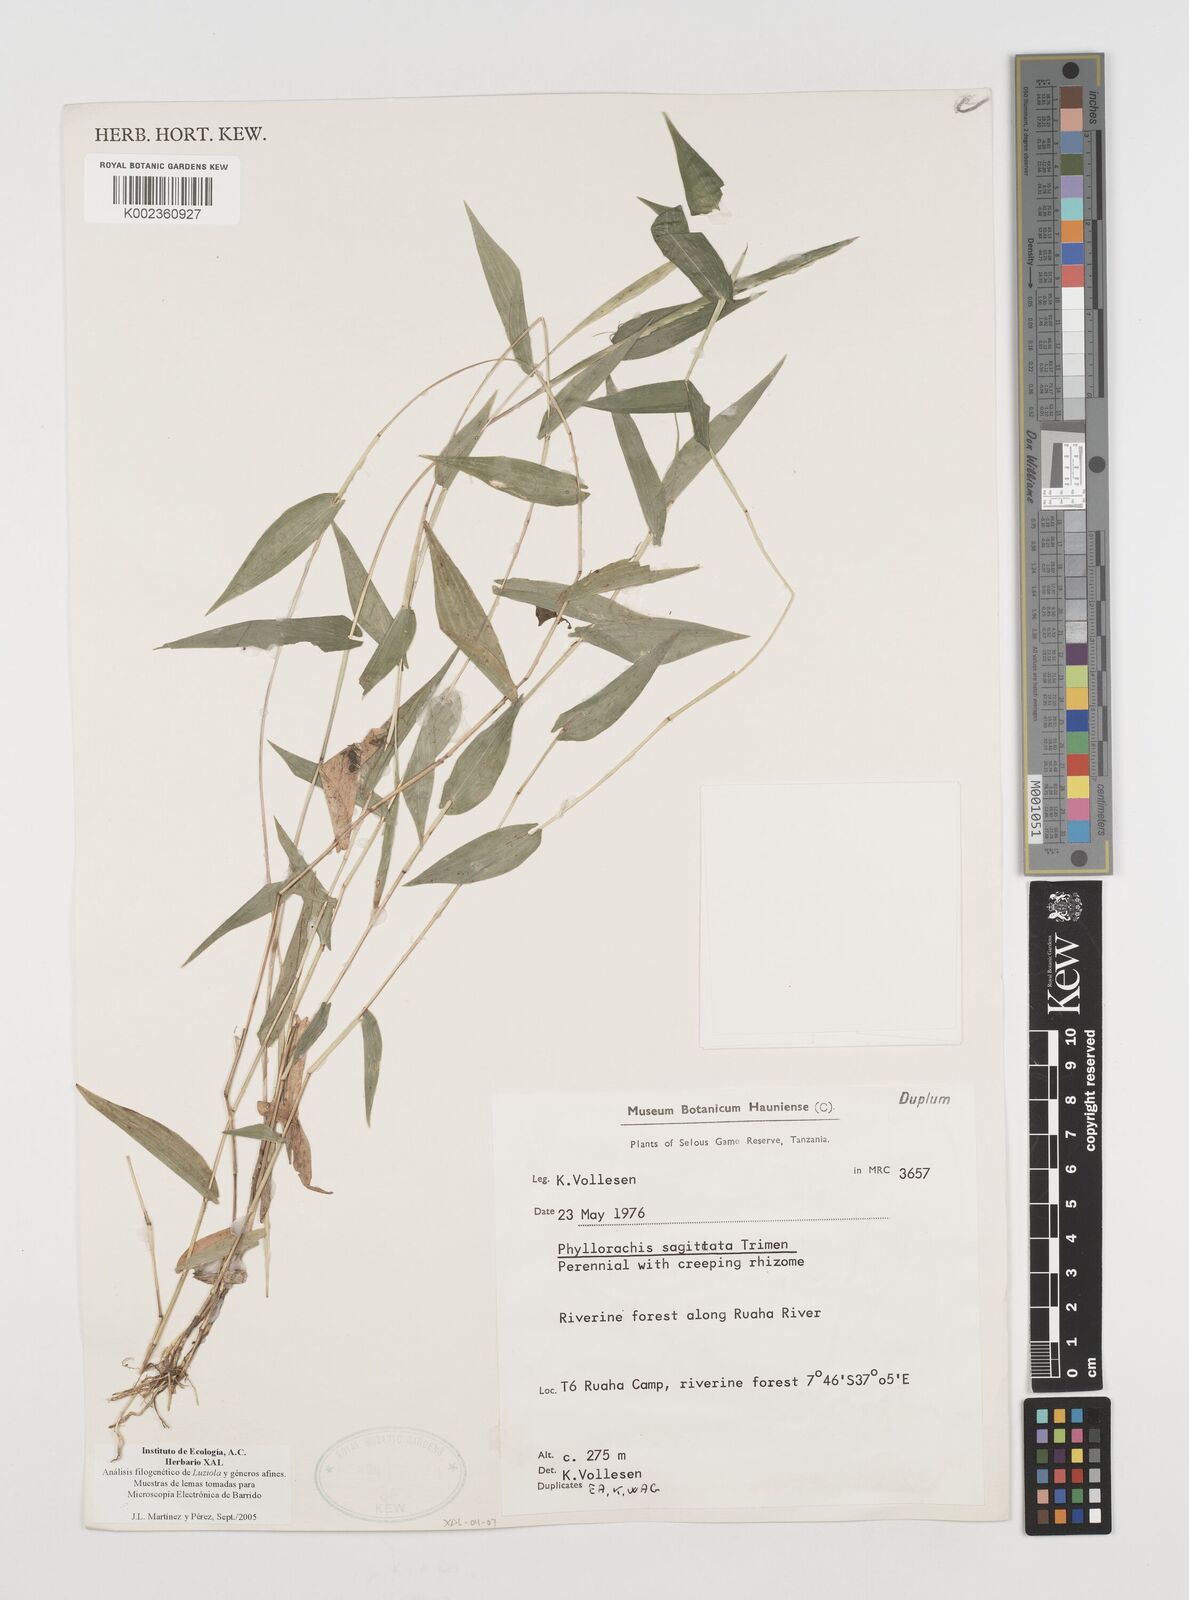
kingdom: Plantae
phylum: Tracheophyta
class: Liliopsida
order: Poales
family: Poaceae
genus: Phyllorachis
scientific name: Phyllorachis sagittata
